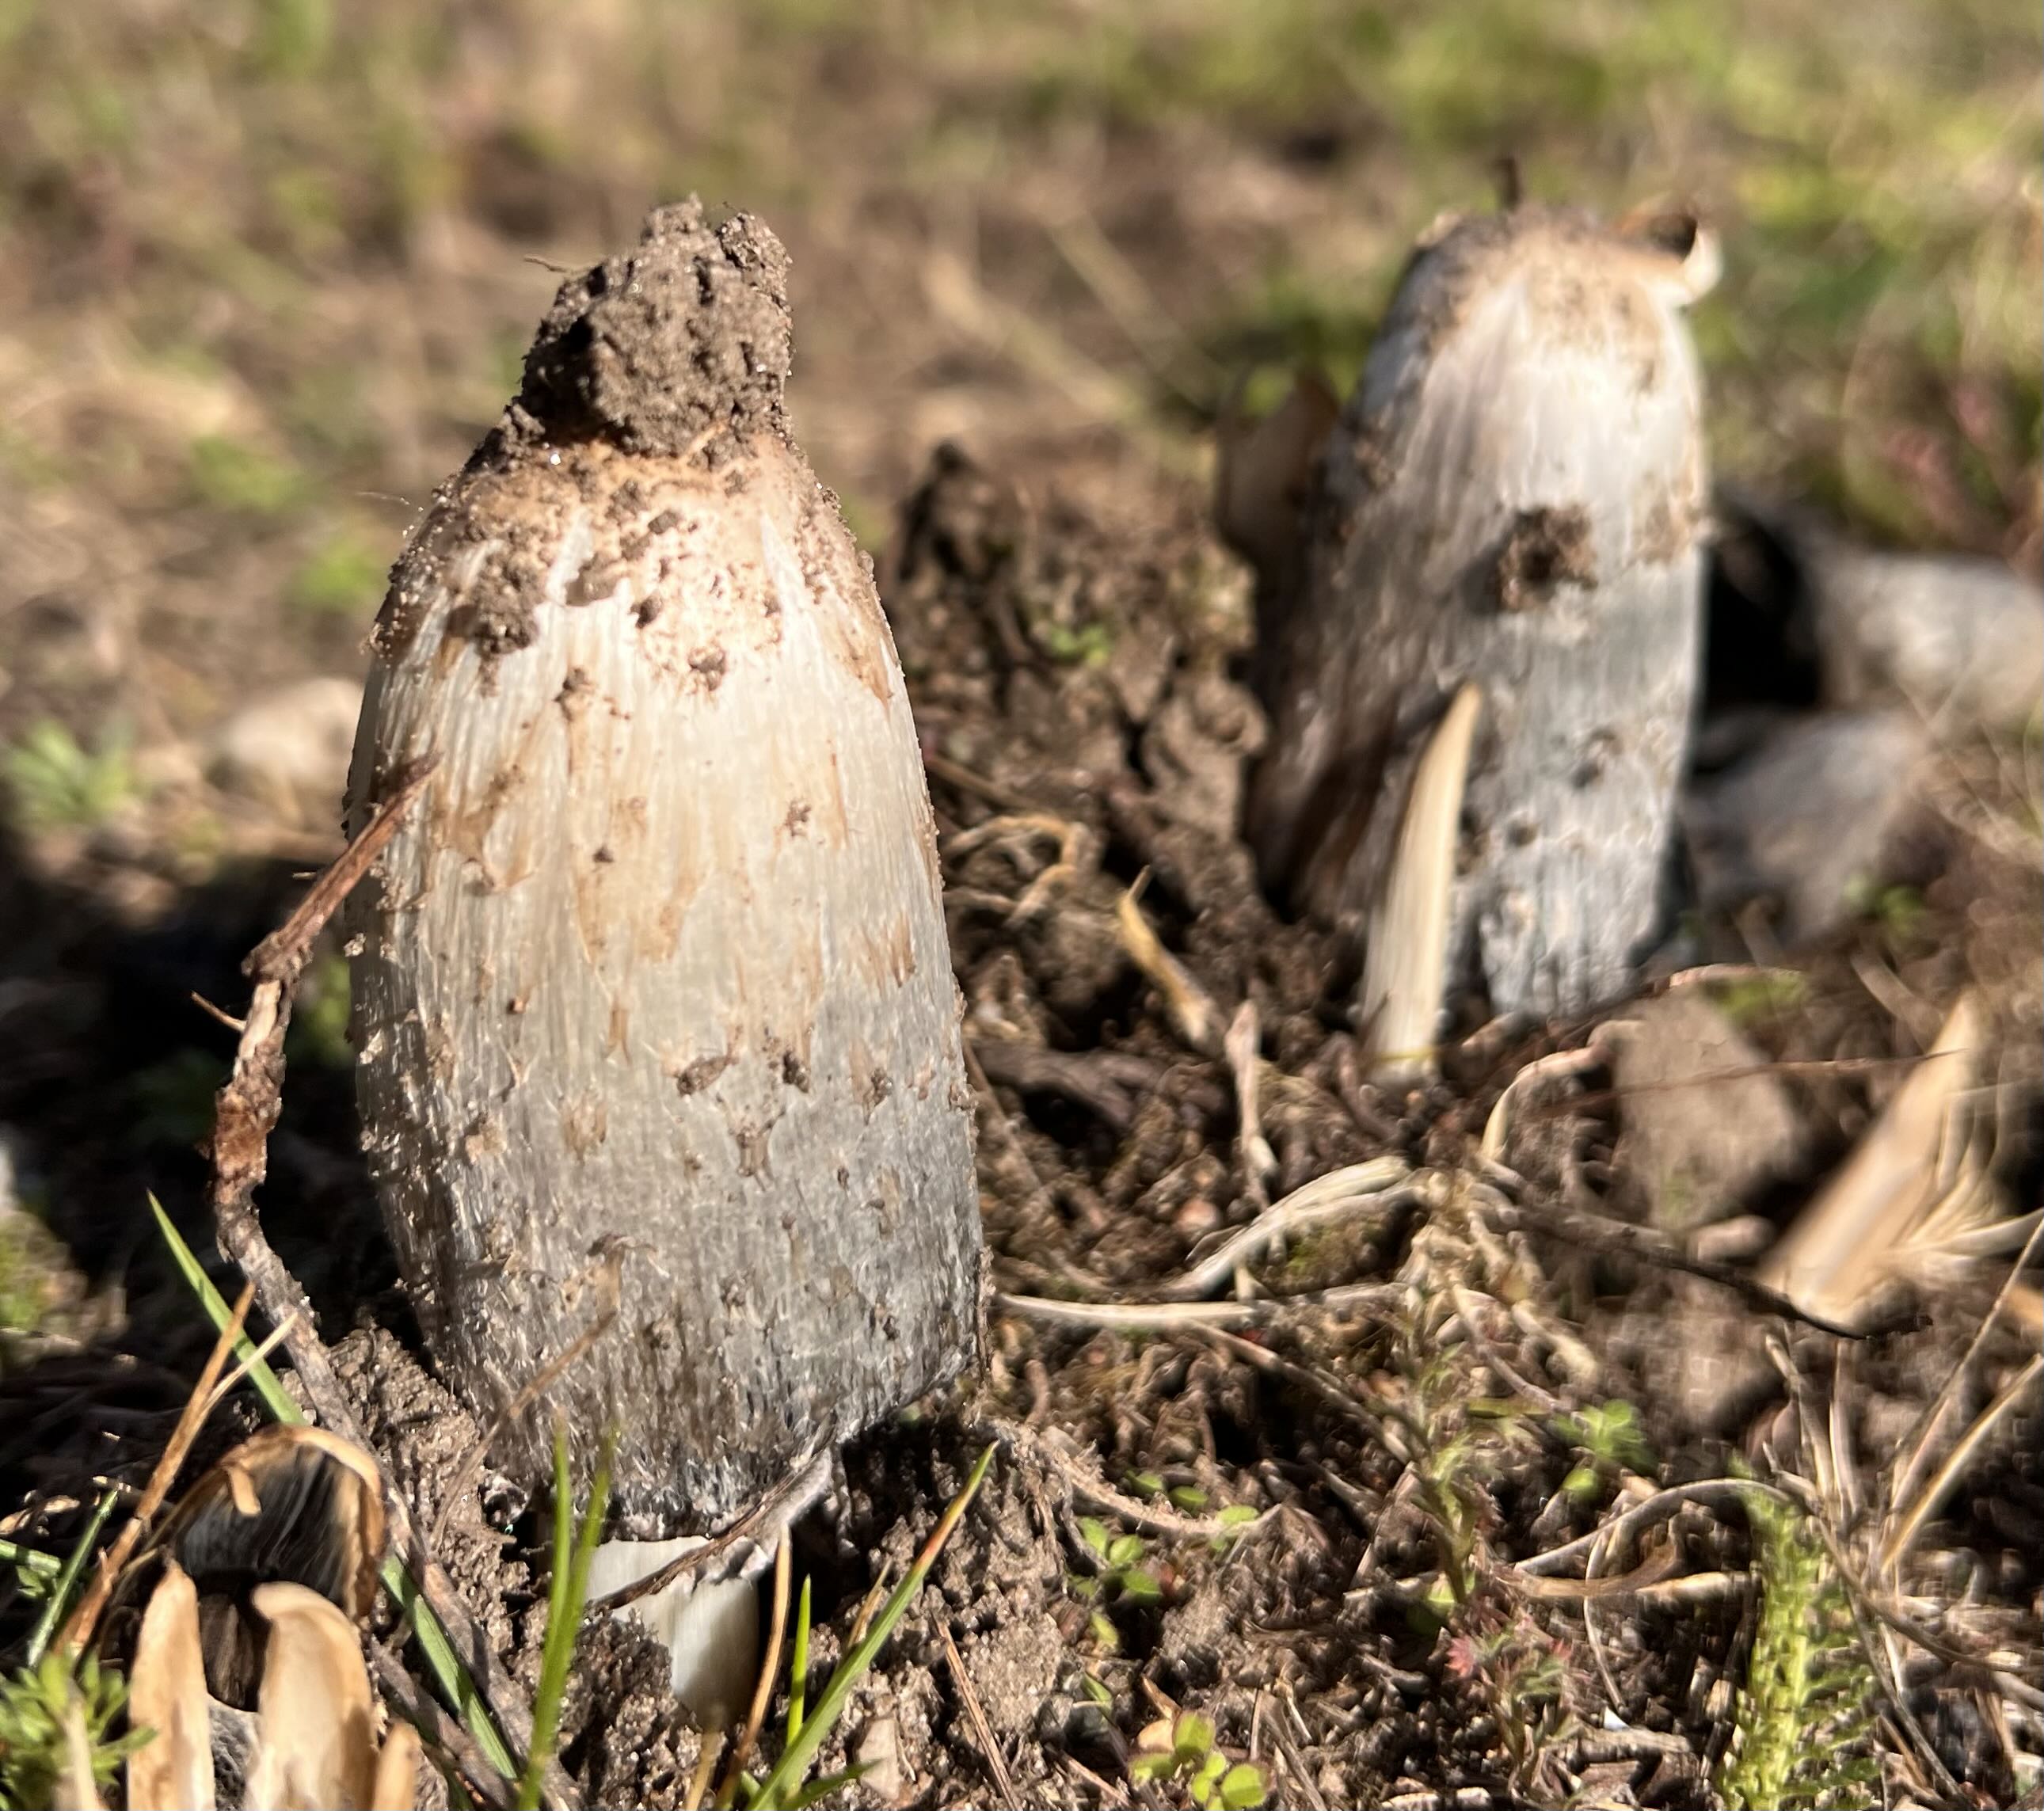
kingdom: Fungi
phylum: Basidiomycota
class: Agaricomycetes
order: Agaricales
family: Agaricaceae
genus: Coprinus
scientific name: Coprinus comatus
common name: stor parykhat
